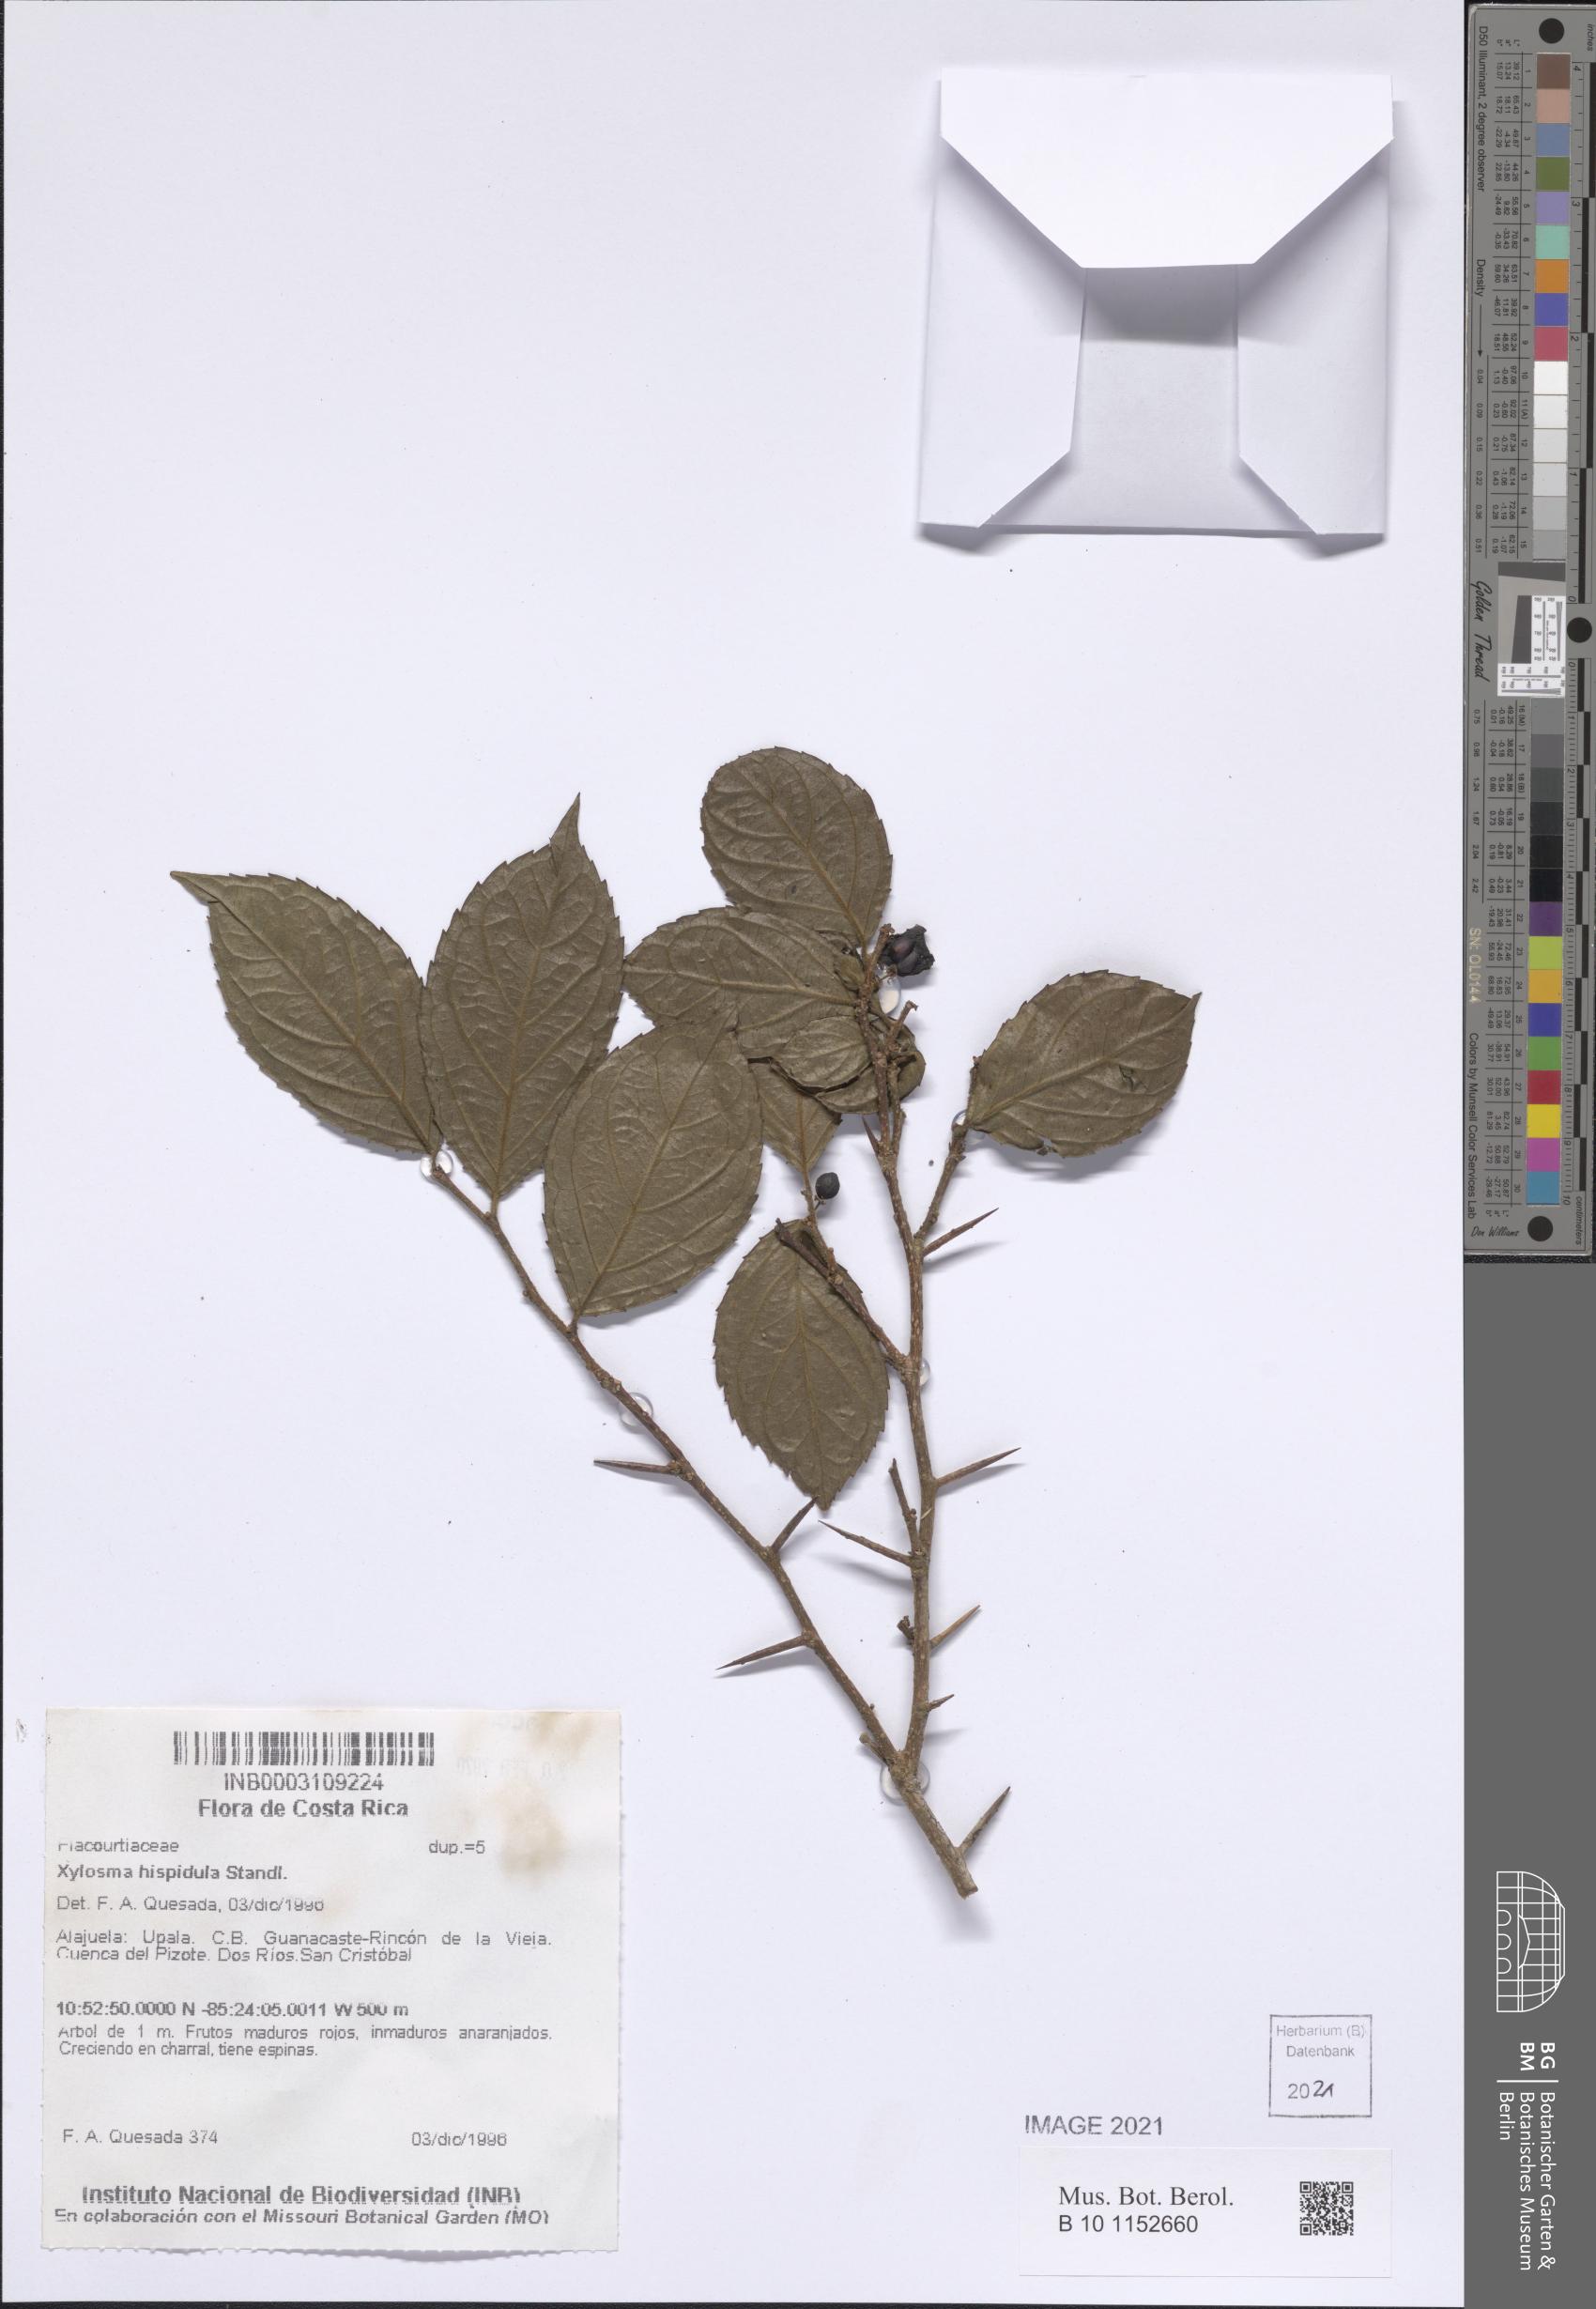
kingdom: Plantae
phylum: Tracheophyta
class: Magnoliopsida
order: Malpighiales
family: Salicaceae
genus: Xylosma
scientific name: Xylosma hispidula
